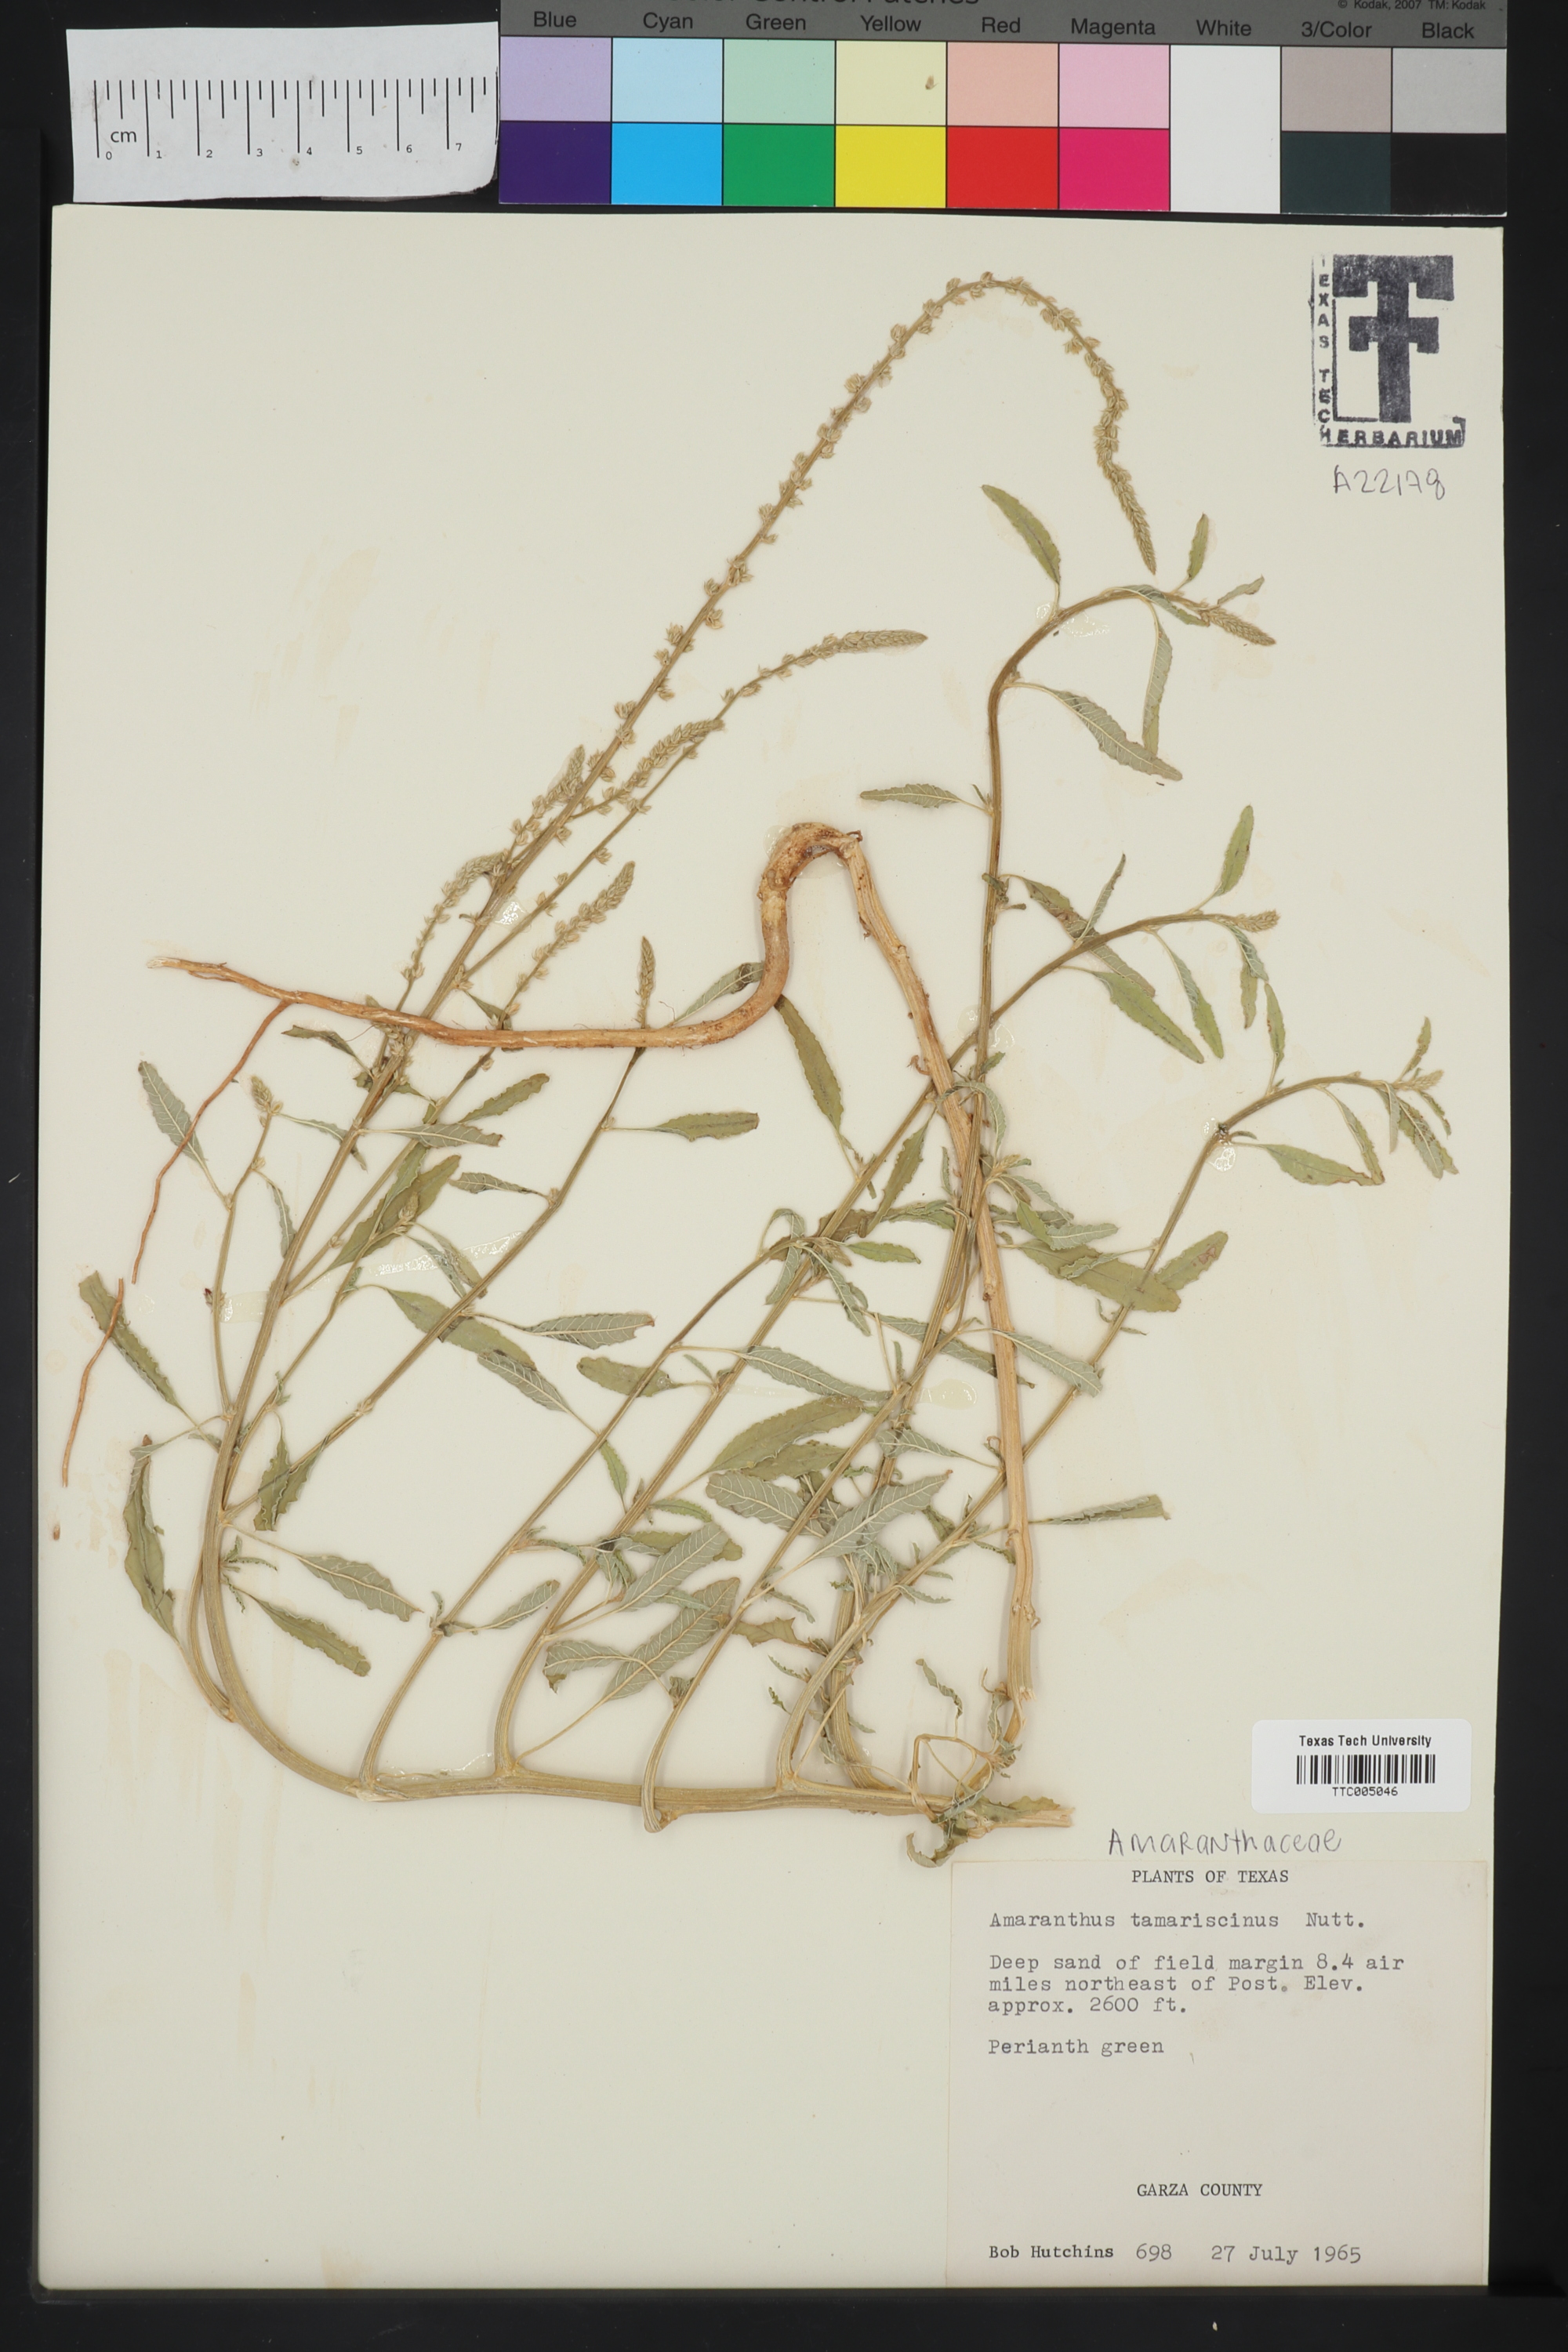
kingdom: Plantae
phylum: Tracheophyta
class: Magnoliopsida
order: Caryophyllales
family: Amaranthaceae
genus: Amaranthus
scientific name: Amaranthus tamariscinus
